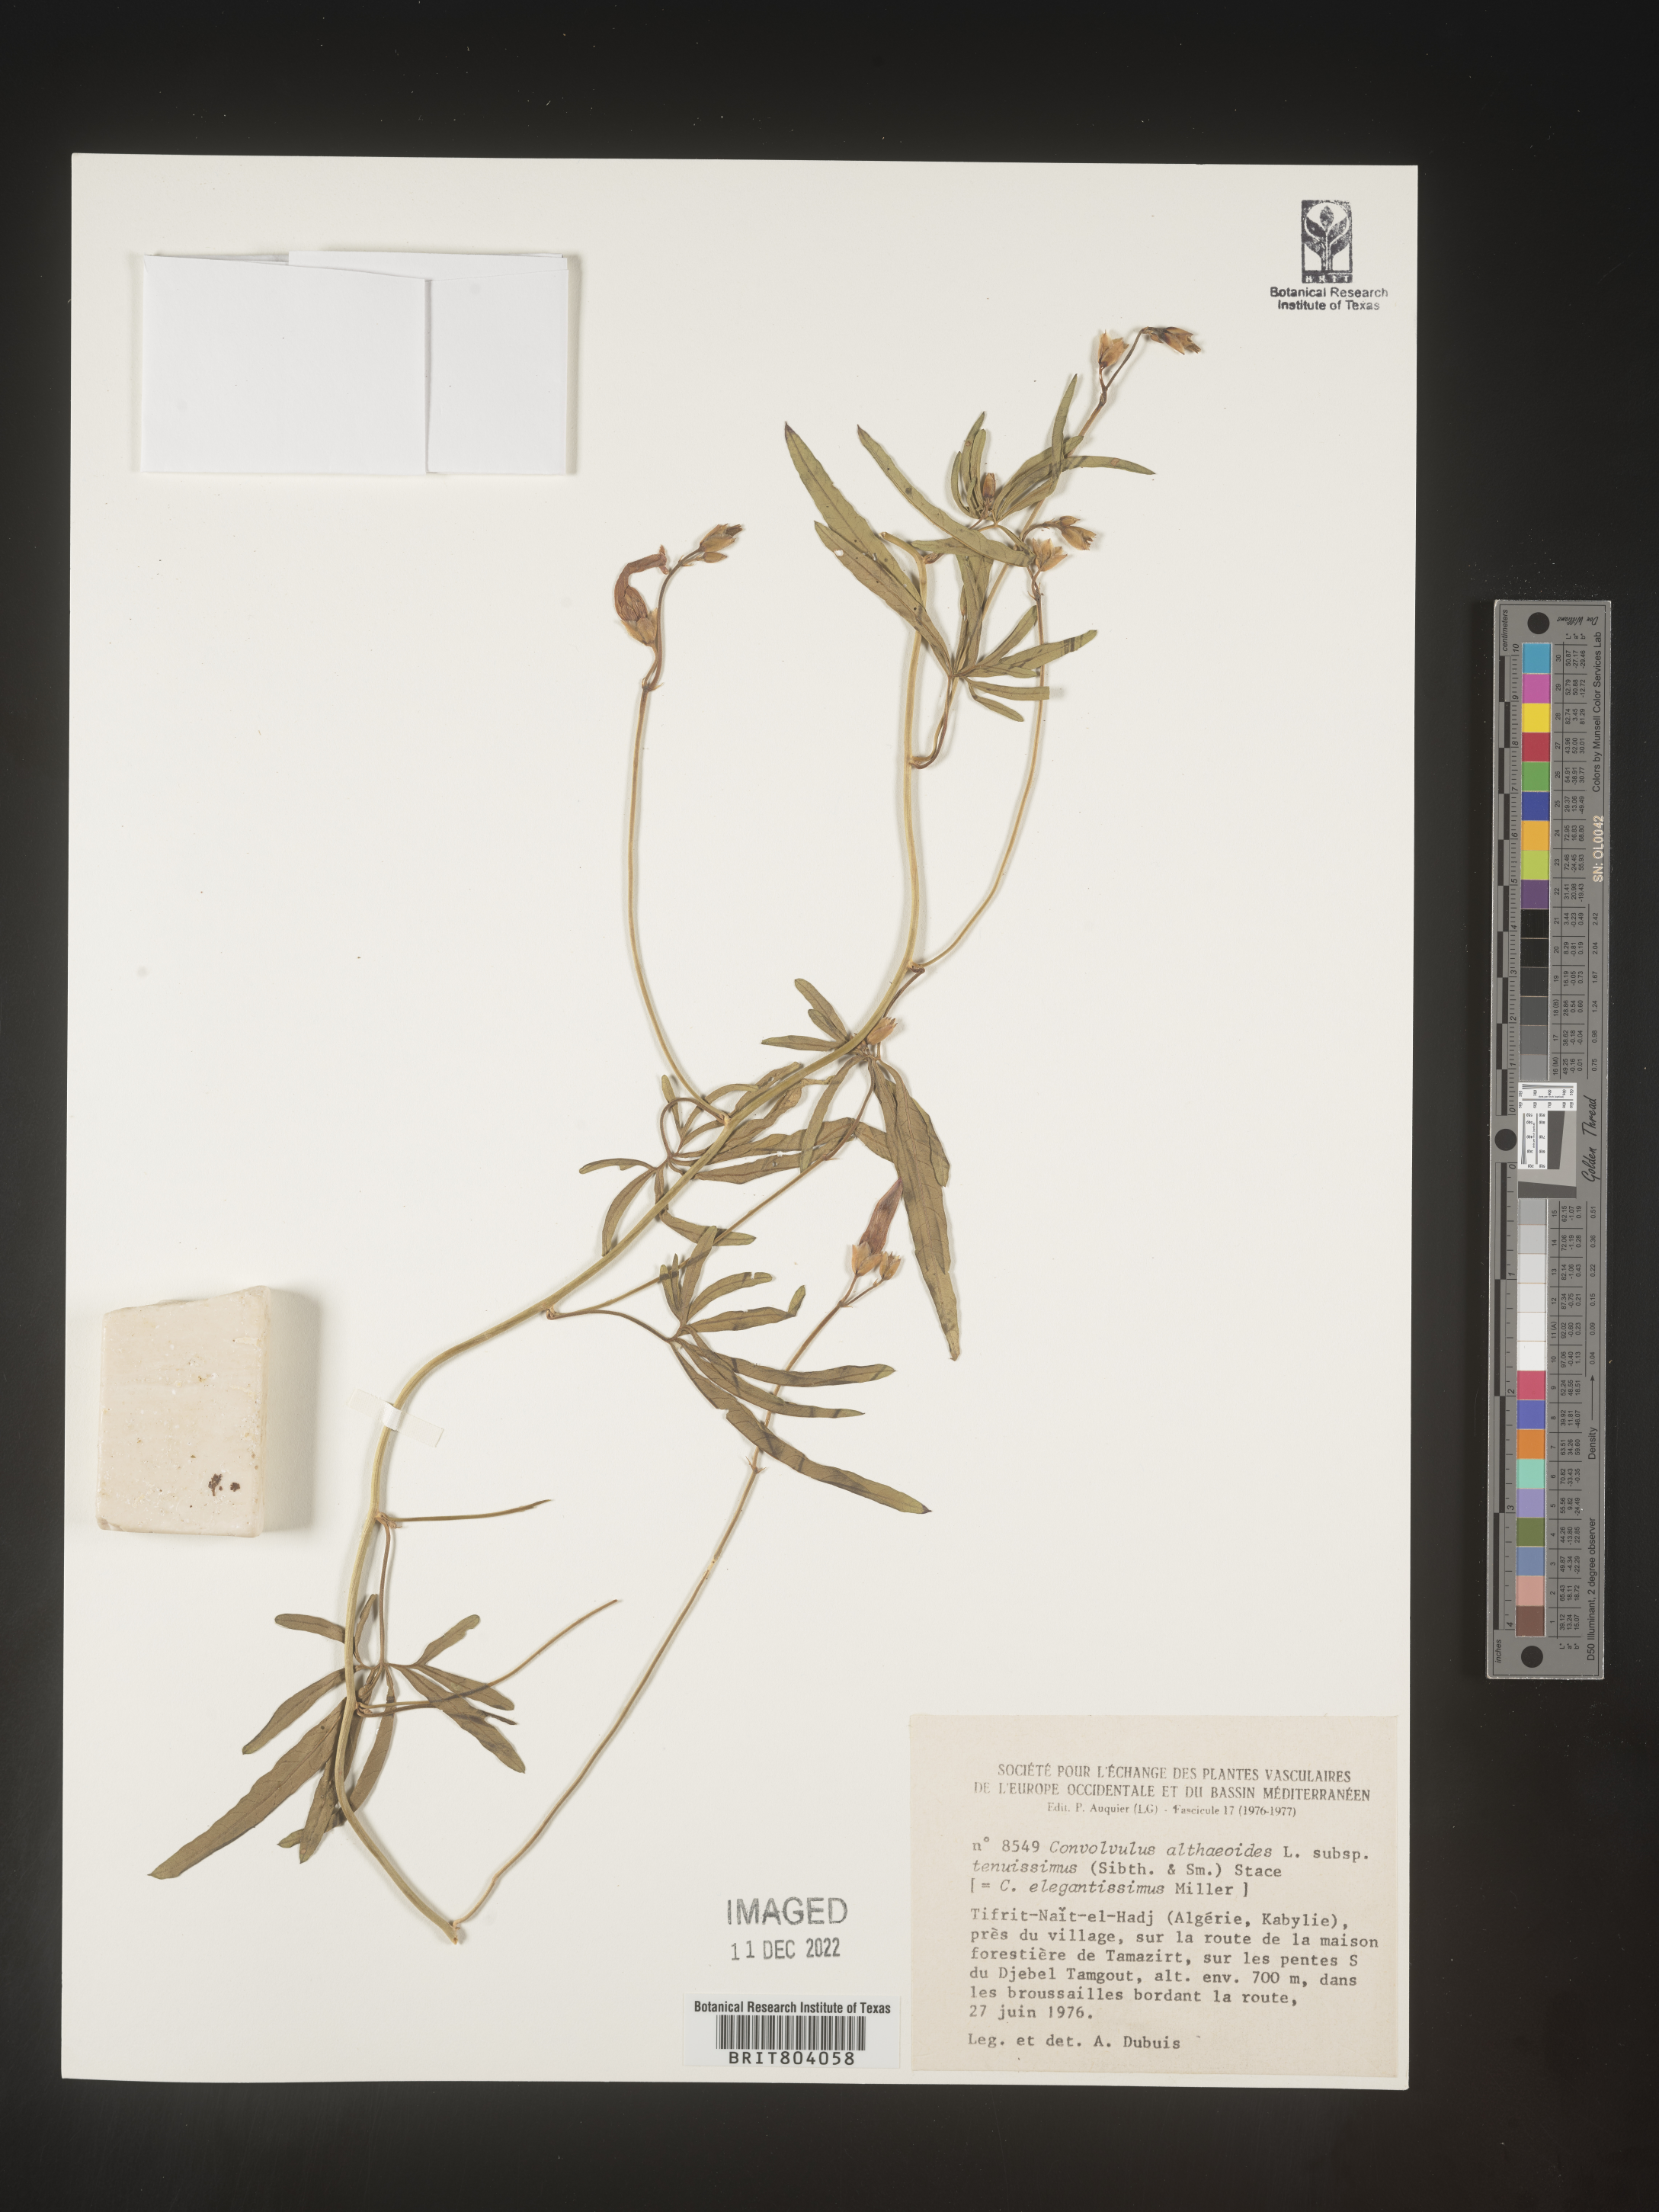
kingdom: Plantae
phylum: Tracheophyta
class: Magnoliopsida
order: Solanales
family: Convolvulaceae
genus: Convolvulus
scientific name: Convolvulus
